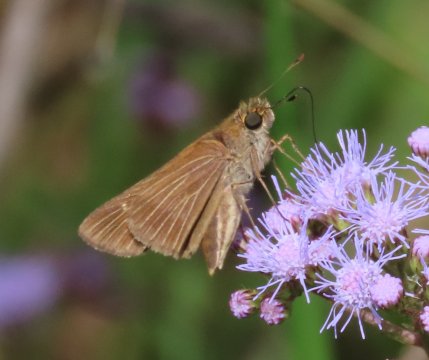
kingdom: Animalia
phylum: Arthropoda
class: Insecta
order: Lepidoptera
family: Hesperiidae
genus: Panoquina
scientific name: Panoquina ocola
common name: Ocola Skipper
